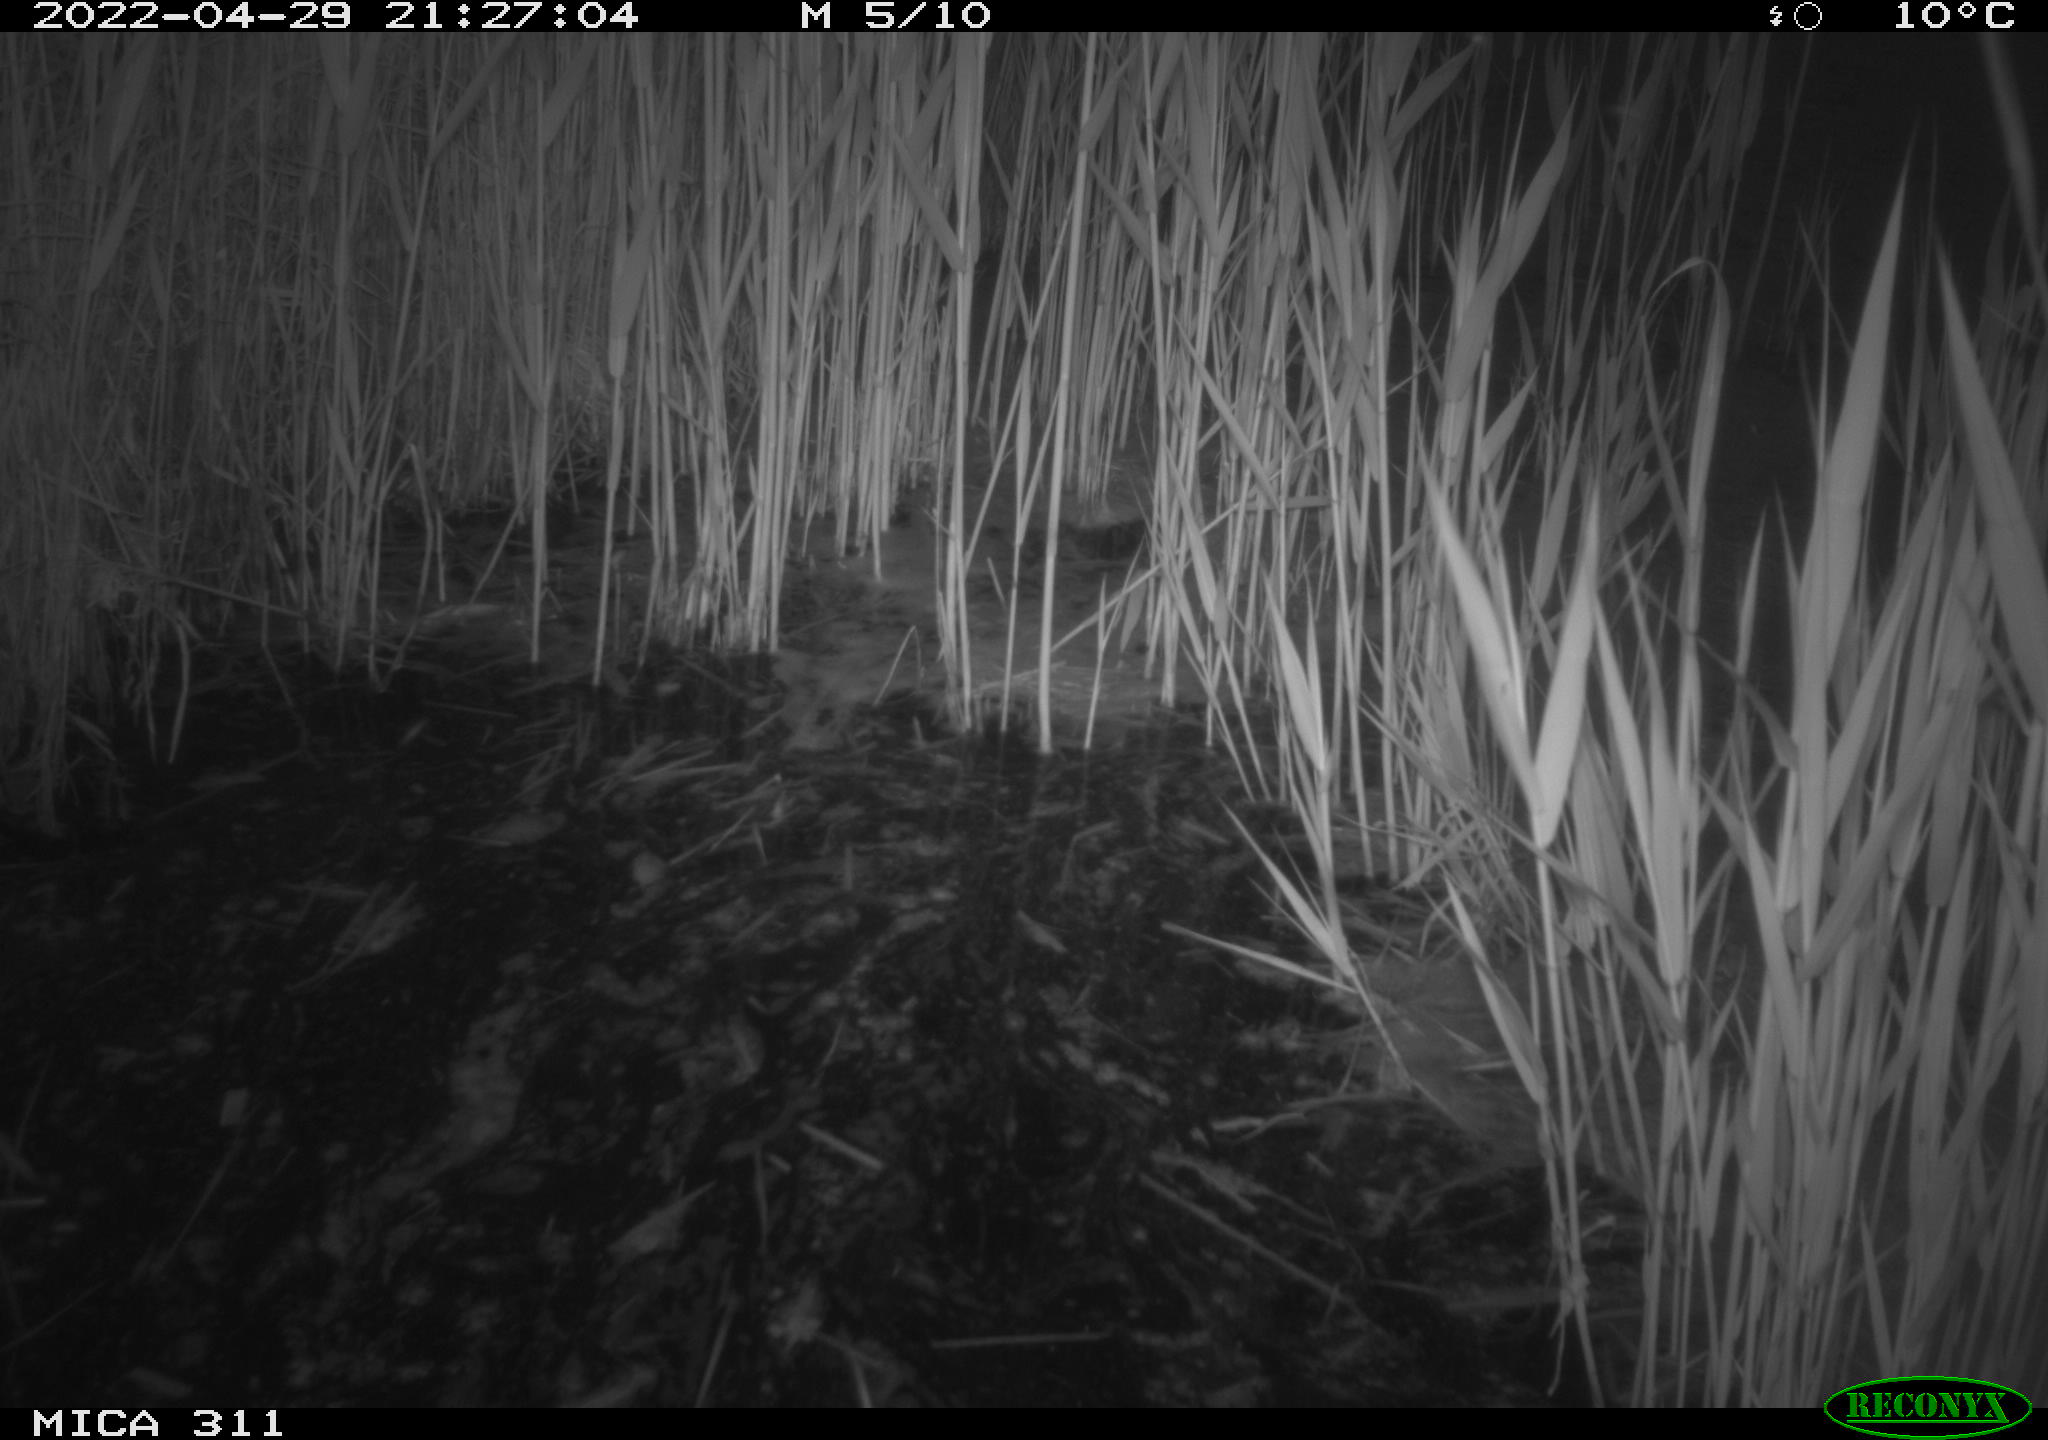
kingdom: Animalia
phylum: Chordata
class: Aves
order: Gruiformes
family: Rallidae
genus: Fulica
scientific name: Fulica atra
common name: Eurasian coot
